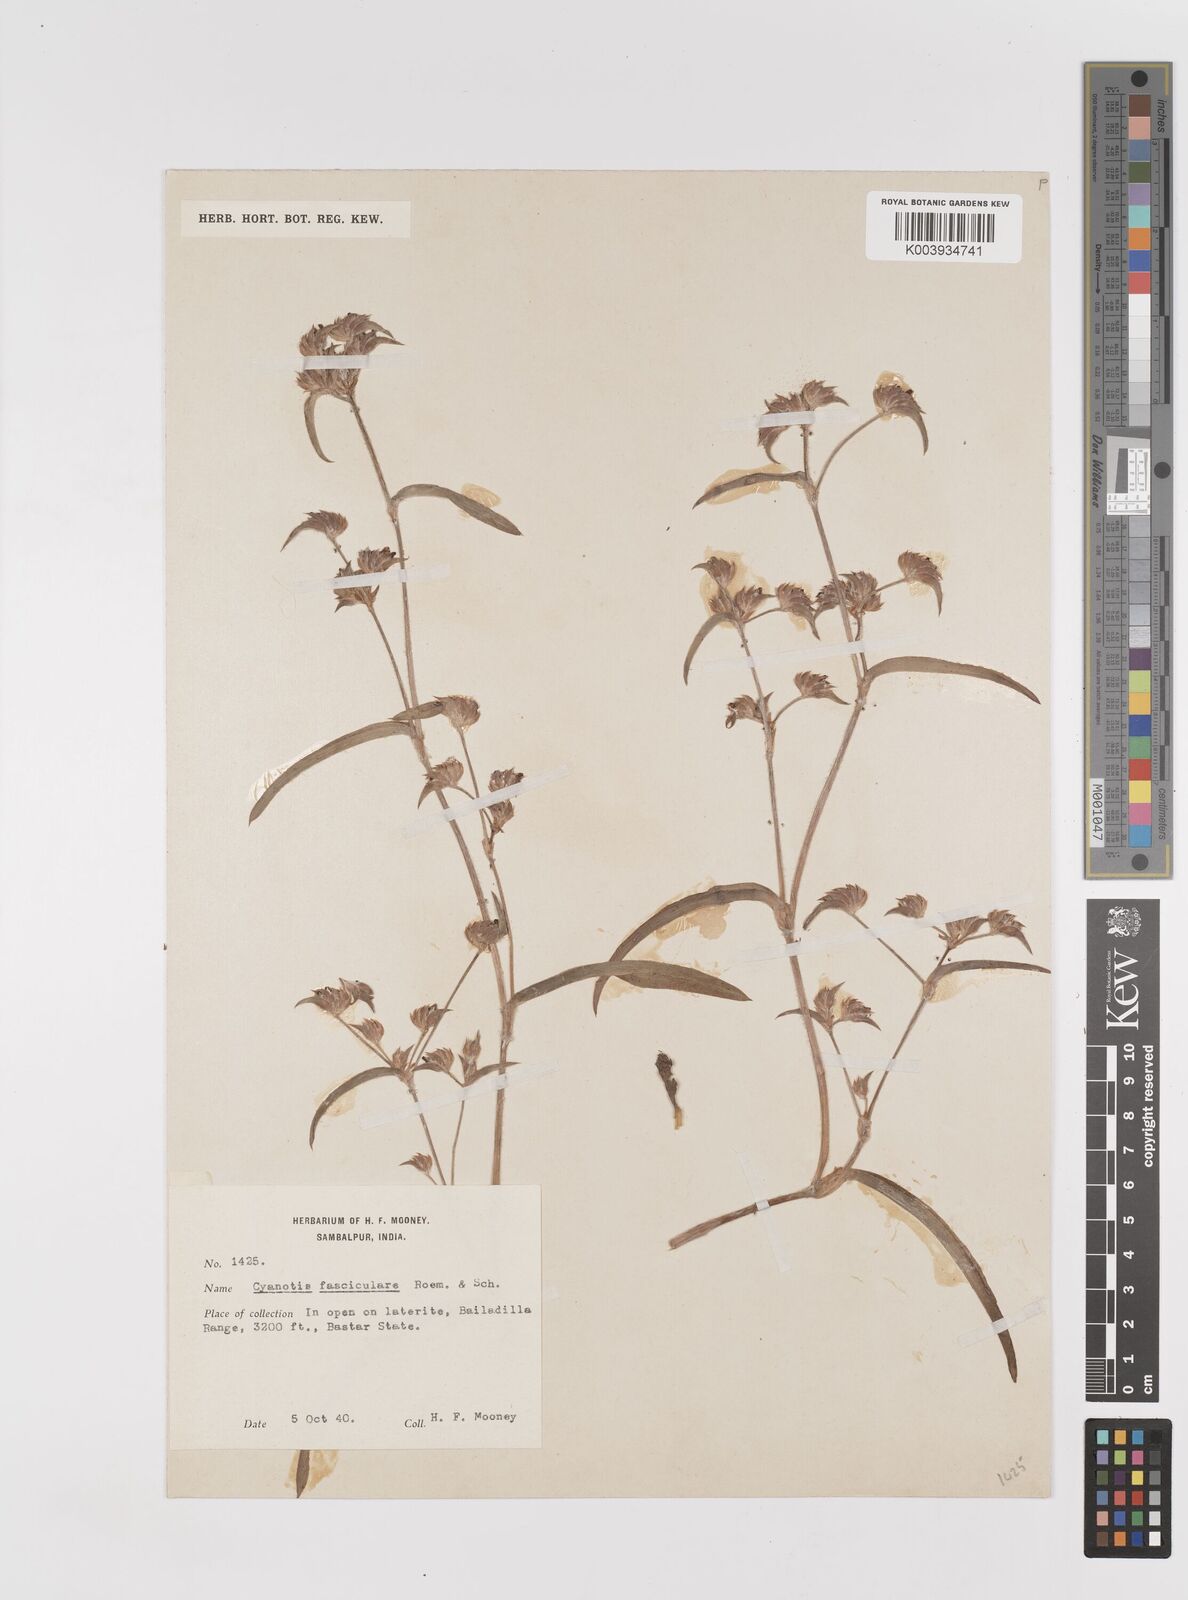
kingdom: Plantae
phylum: Tracheophyta
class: Liliopsida
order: Commelinales
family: Commelinaceae
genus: Cyanotis
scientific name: Cyanotis fasciculata
